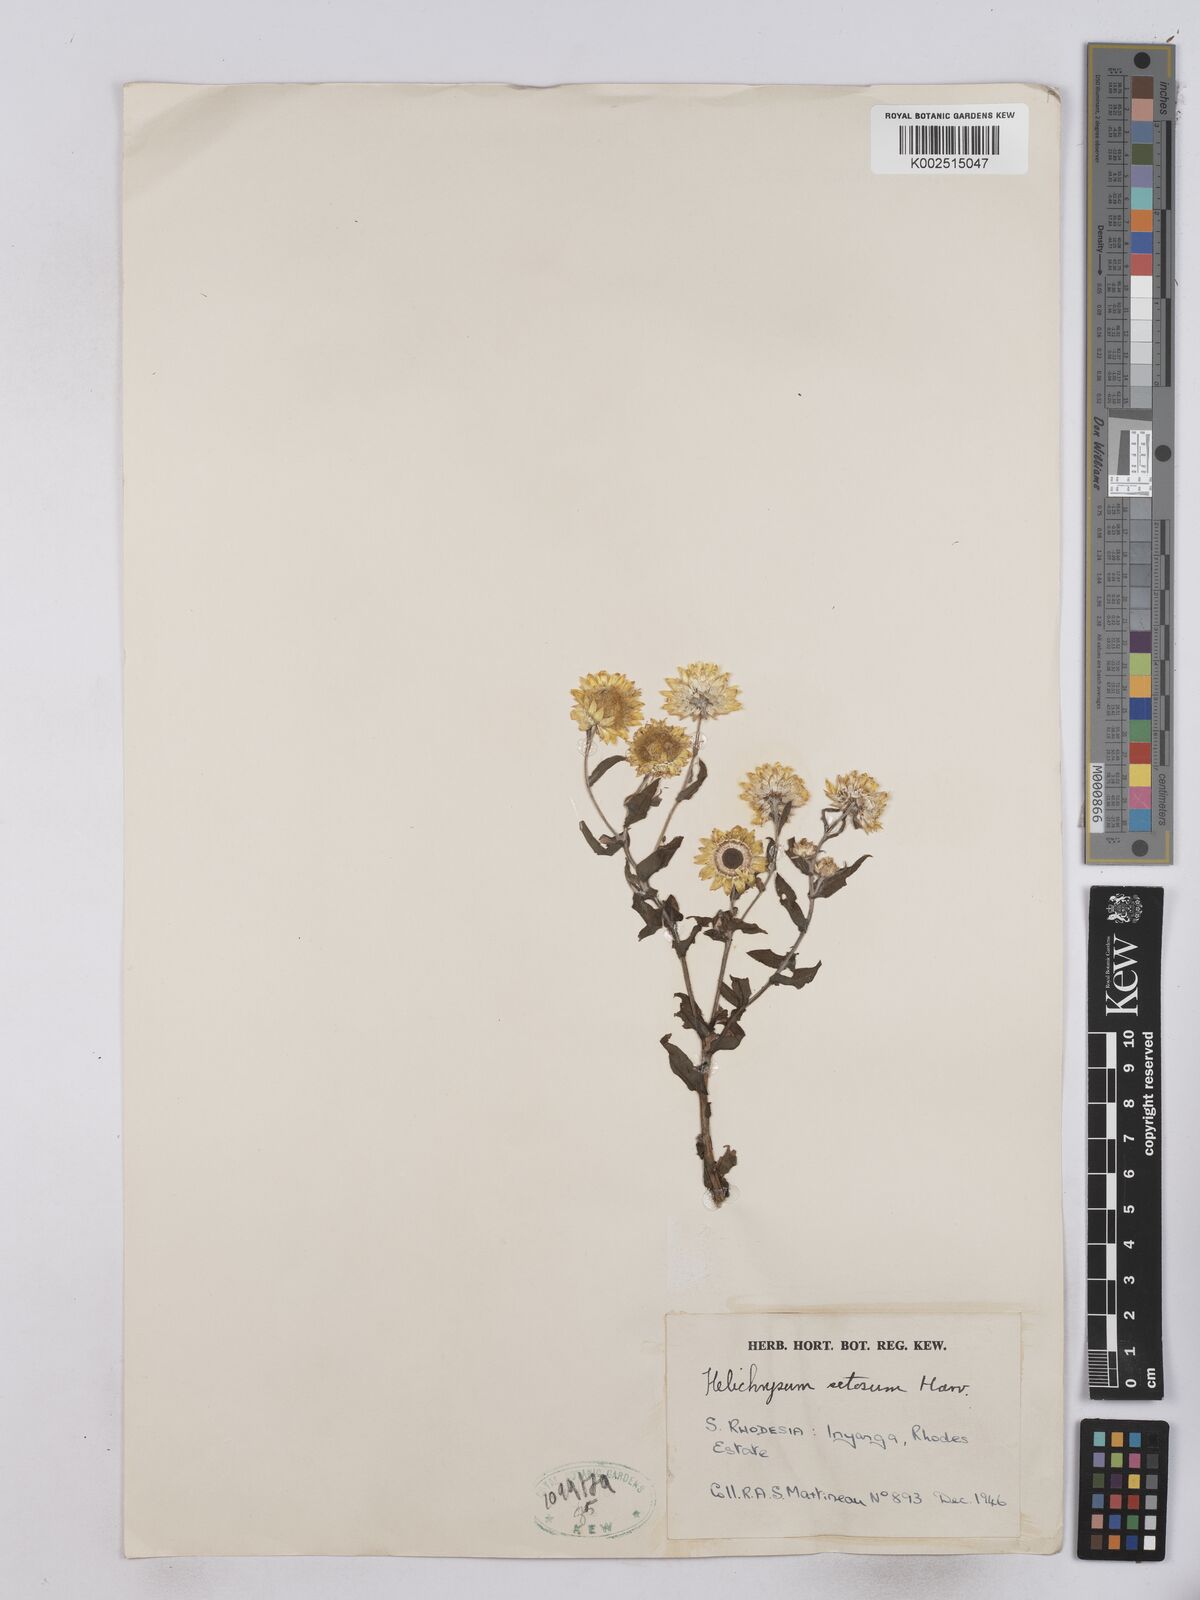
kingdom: Plantae
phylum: Tracheophyta
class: Magnoliopsida
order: Asterales
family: Asteraceae
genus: Helichrysum
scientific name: Helichrysum setosum
